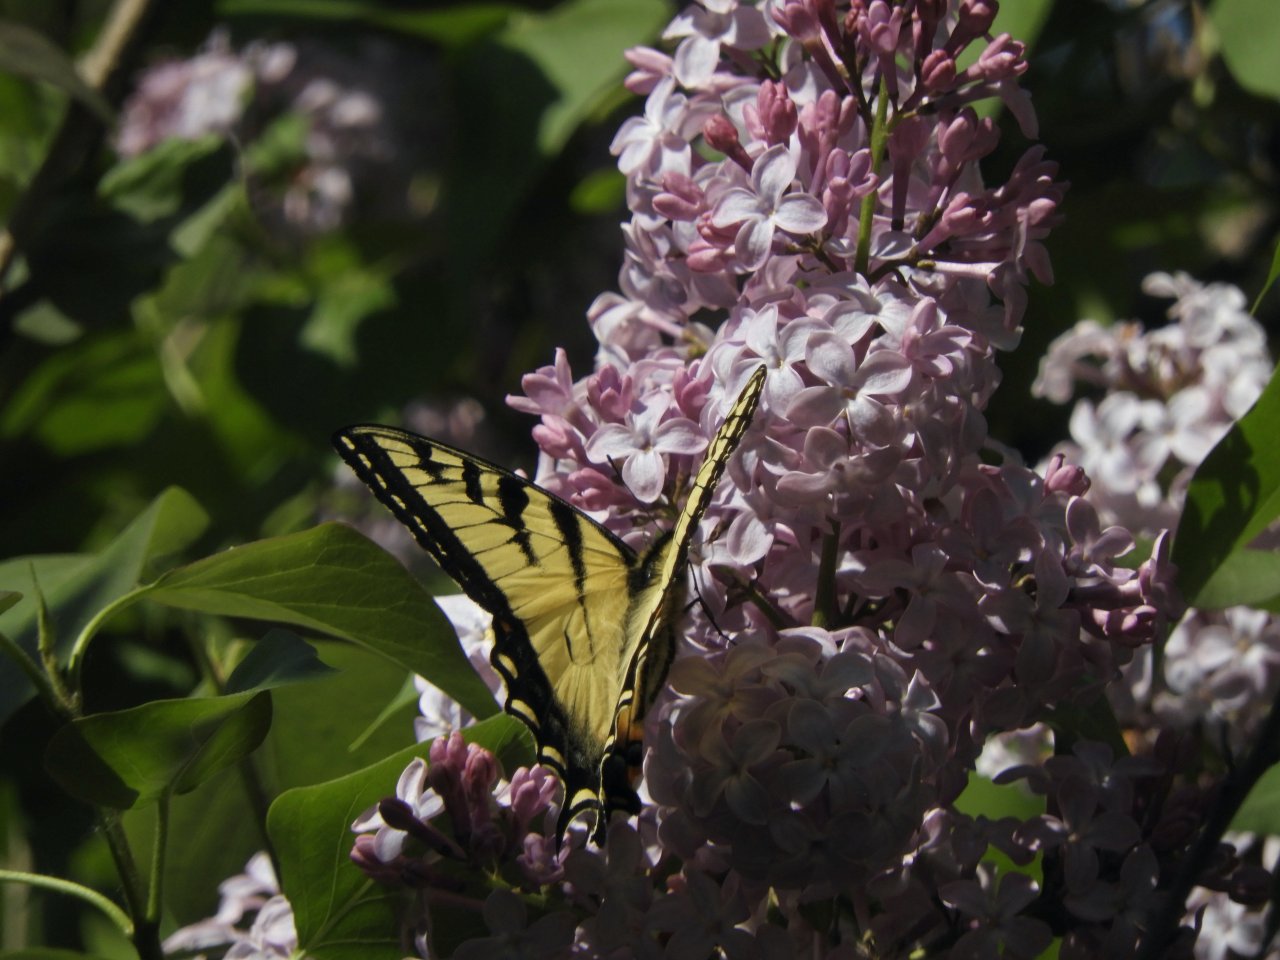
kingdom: Animalia
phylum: Arthropoda
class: Insecta
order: Lepidoptera
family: Papilionidae
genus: Pterourus
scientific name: Pterourus canadensis
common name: Canadian Tiger Swallowtail
